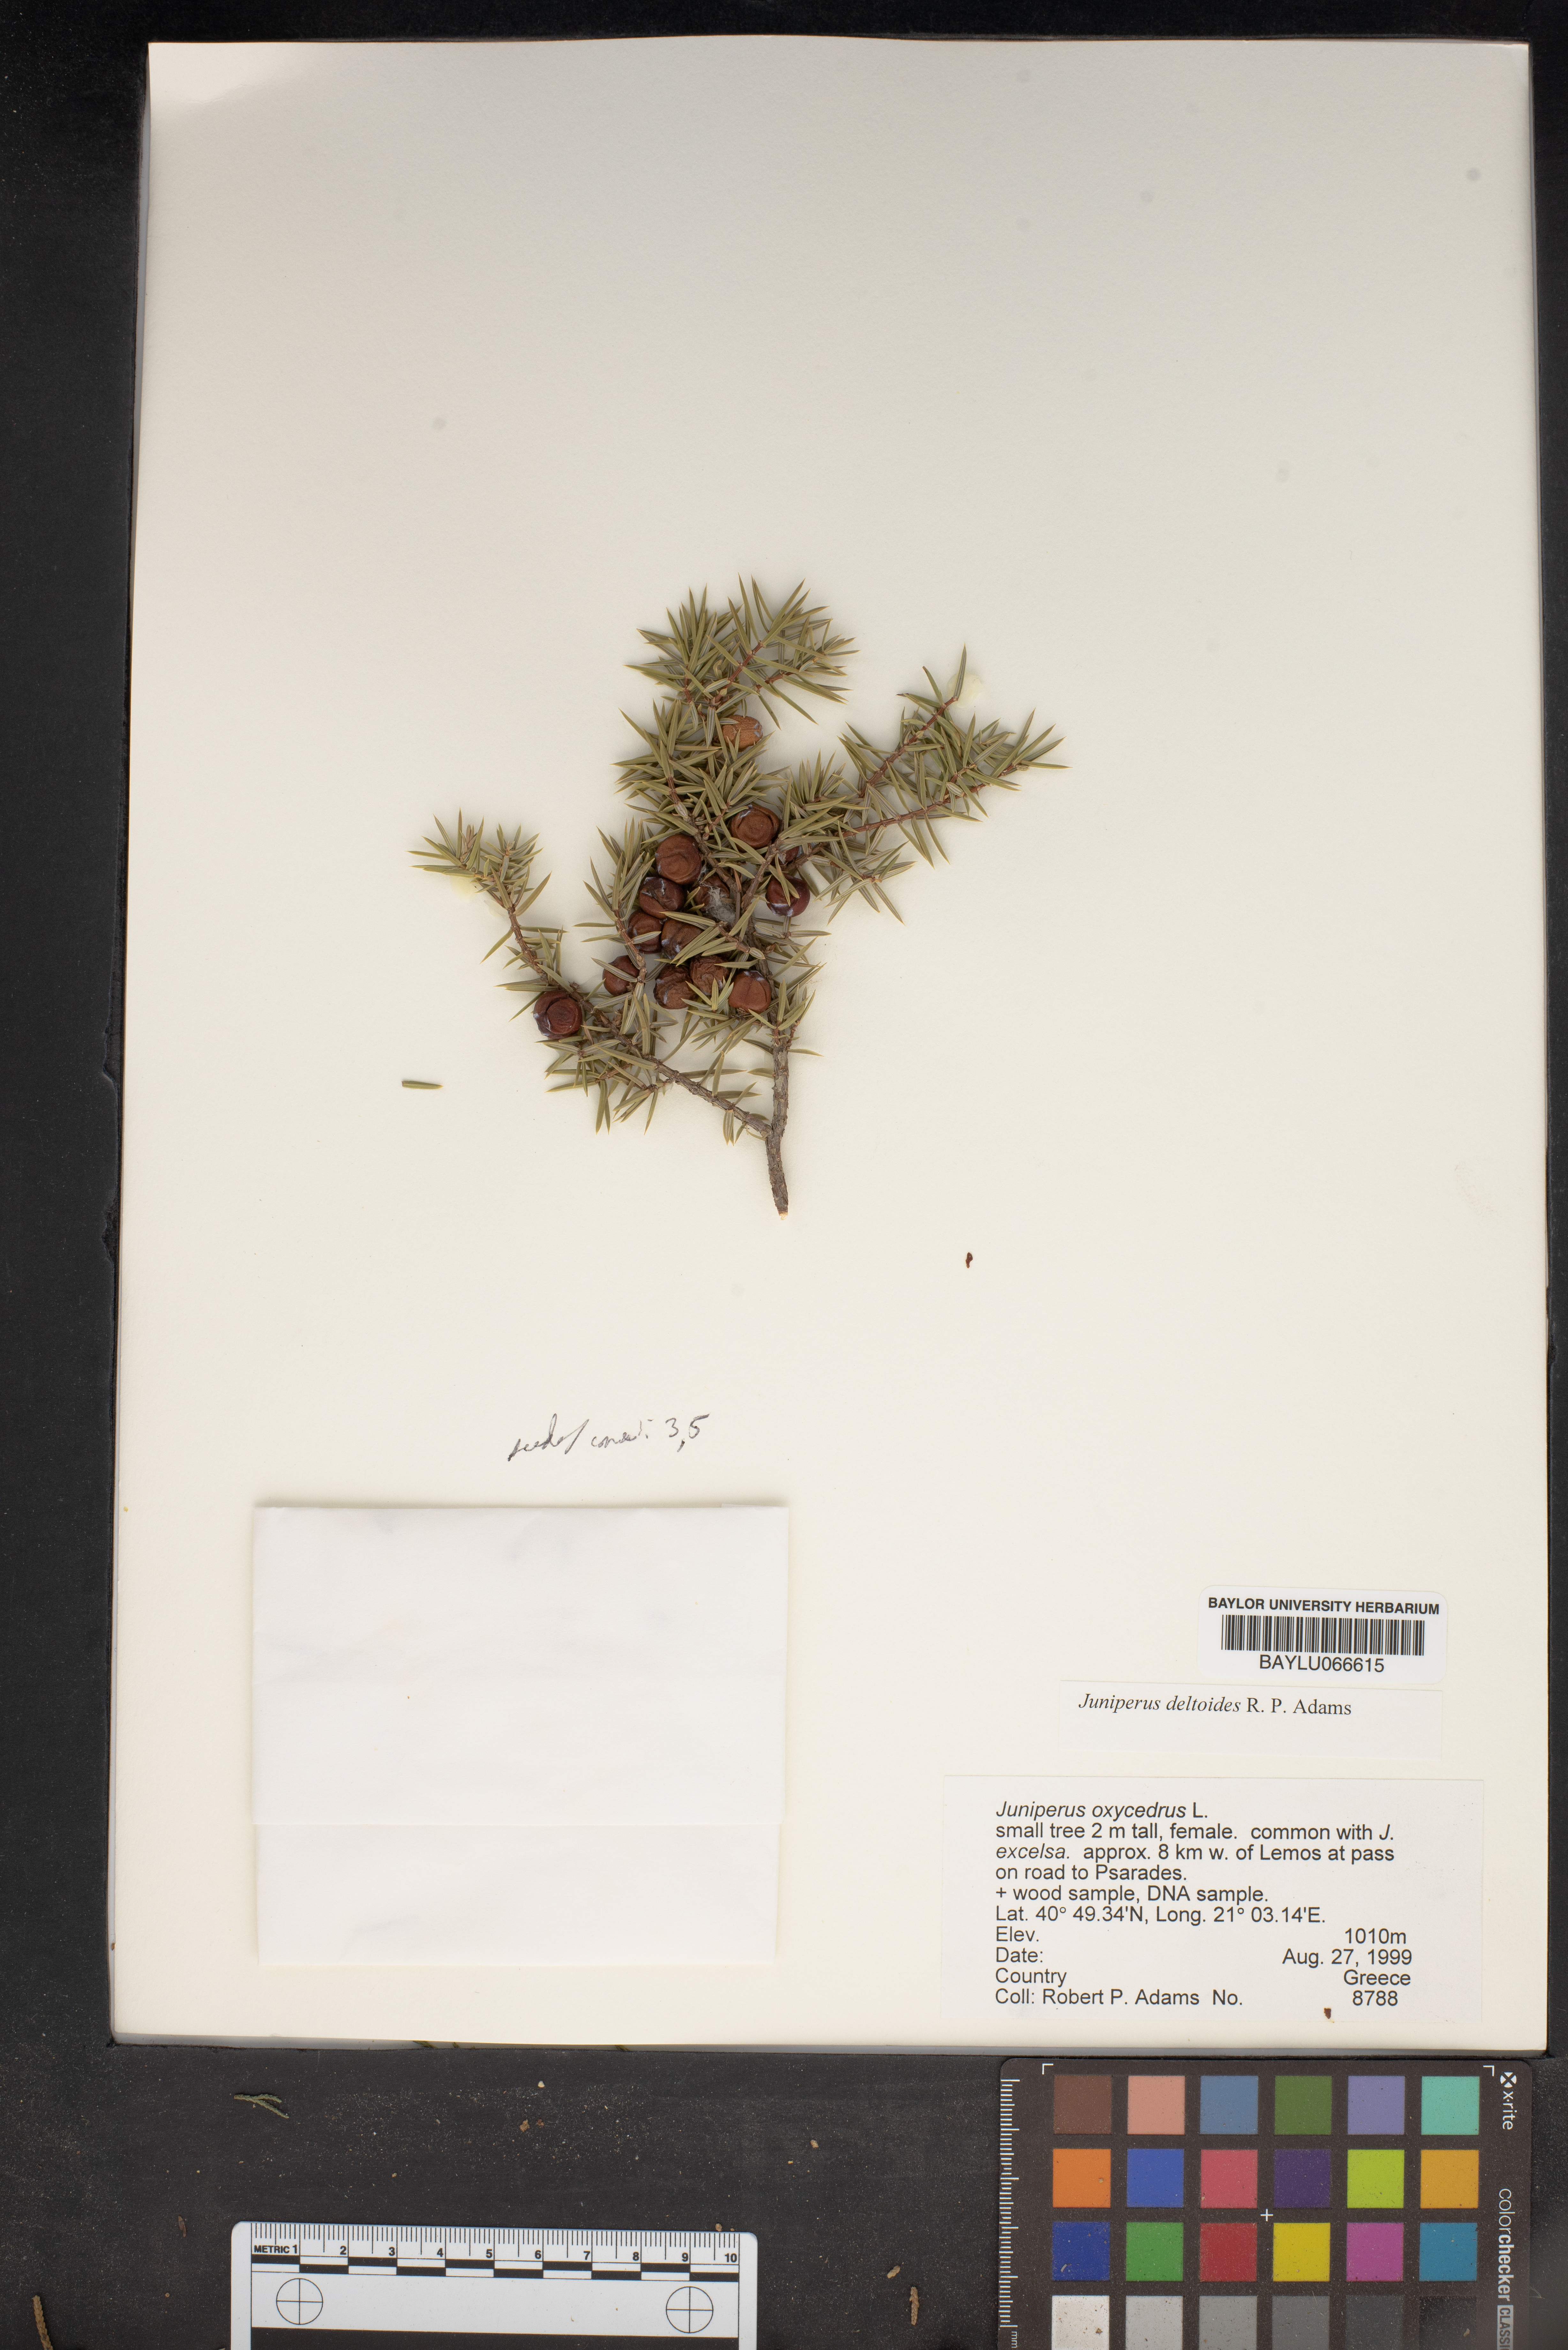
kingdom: Plantae
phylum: Tracheophyta
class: Pinopsida
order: Pinales
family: Cupressaceae
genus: Juniperus
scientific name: Juniperus oxycedrus
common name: Prickly juniper
